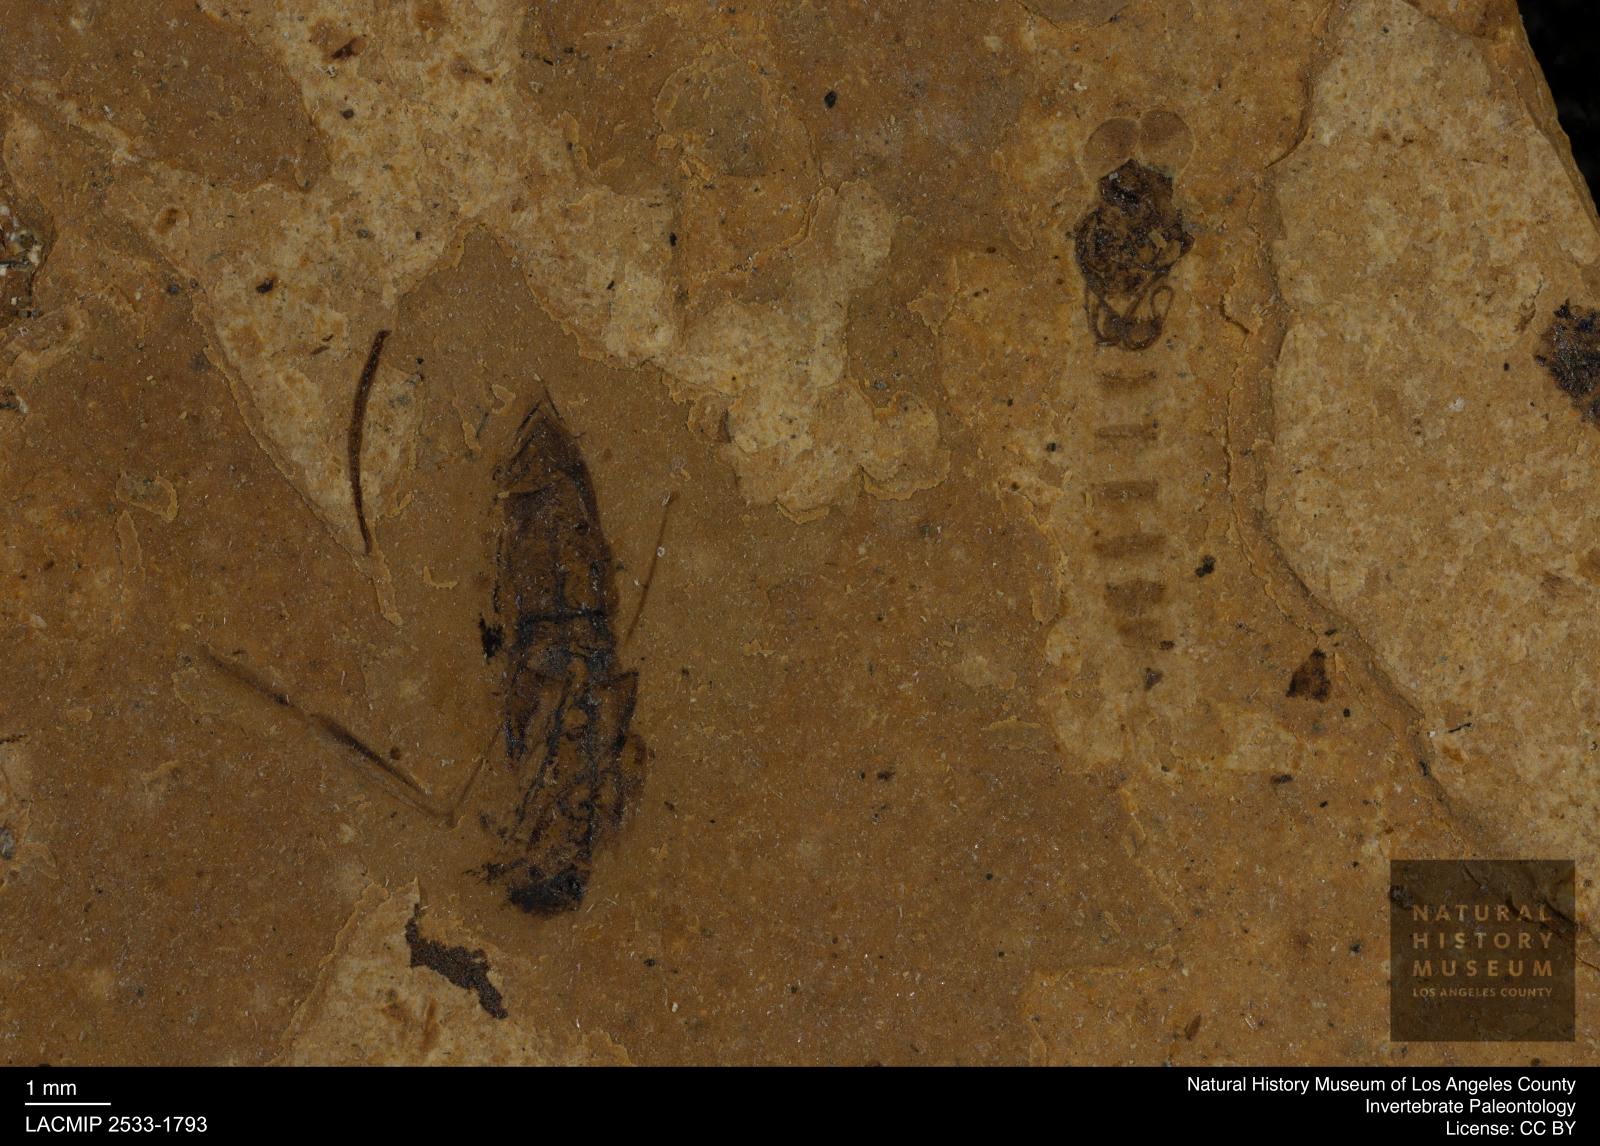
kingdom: Animalia
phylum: Arthropoda
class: Insecta
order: Diptera
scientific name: Diptera
